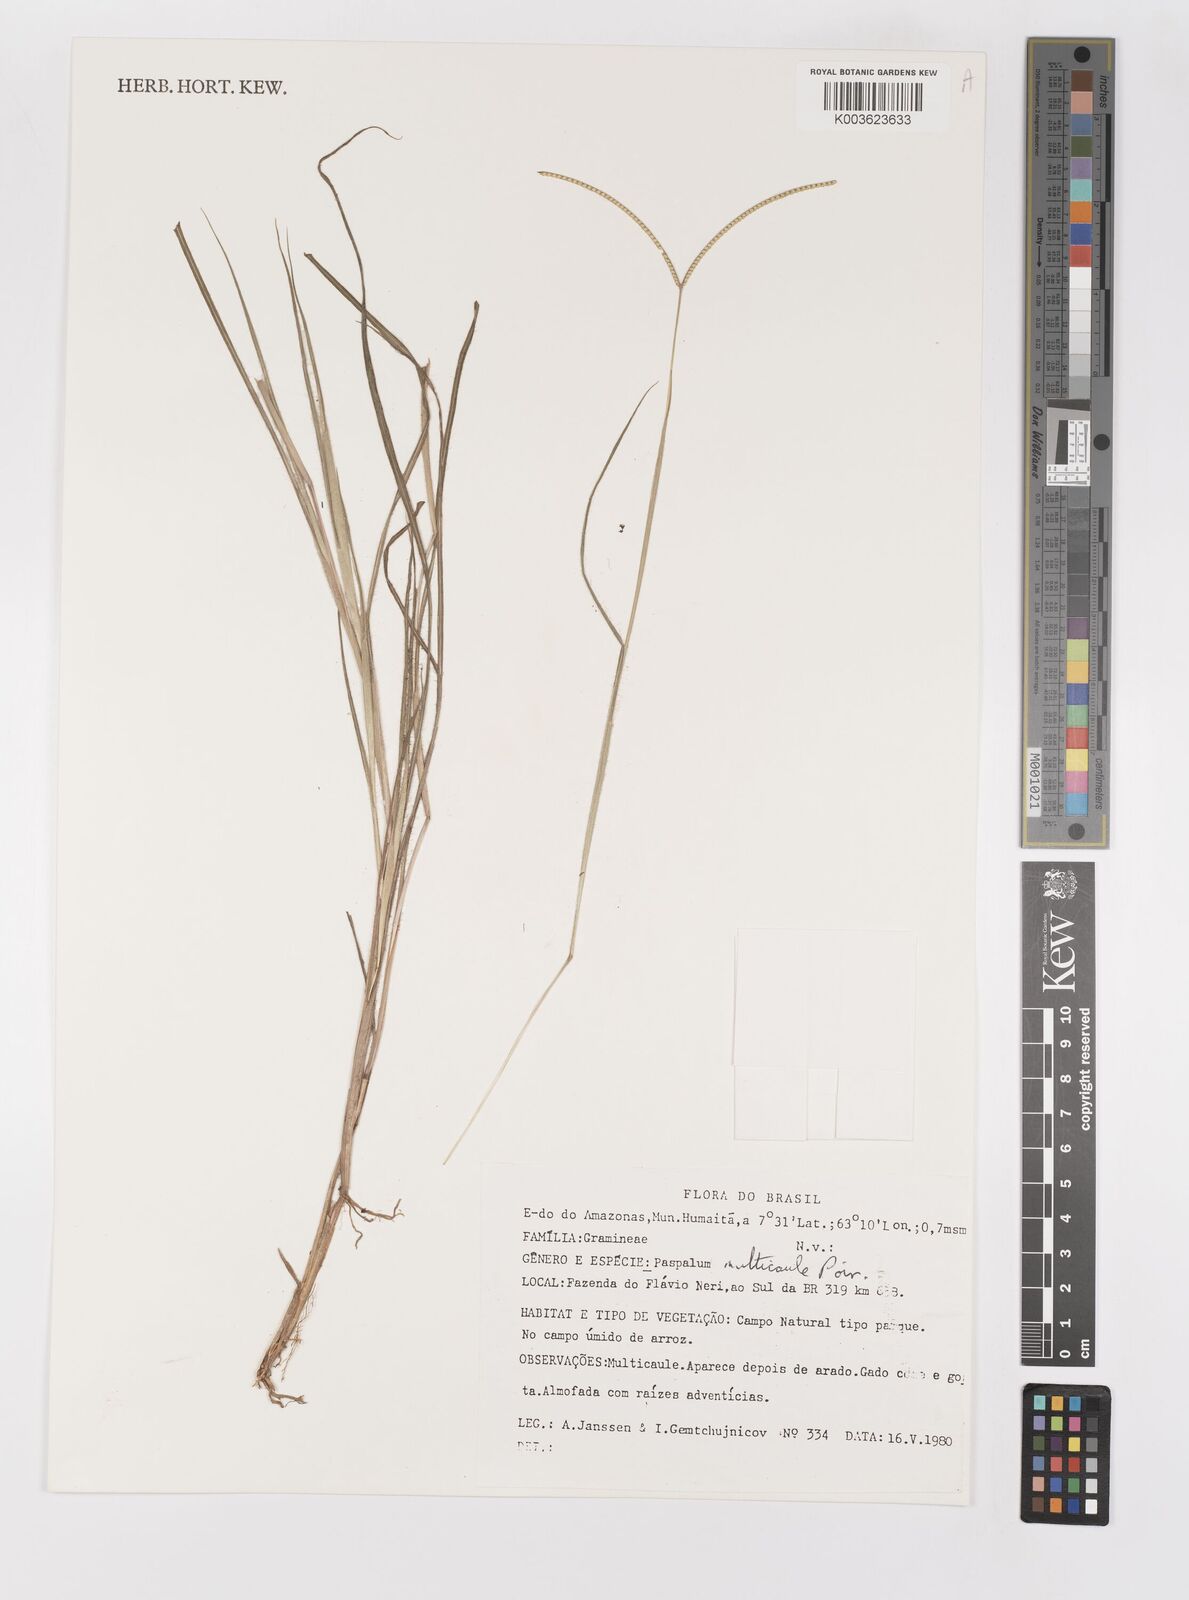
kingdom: Plantae
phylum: Tracheophyta
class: Liliopsida
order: Poales
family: Poaceae
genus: Paspalum
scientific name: Paspalum multicaule
